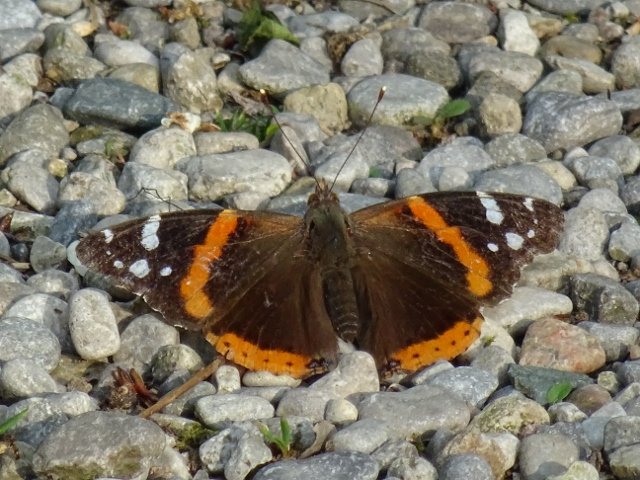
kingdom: Animalia
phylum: Arthropoda
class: Insecta
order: Lepidoptera
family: Nymphalidae
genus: Vanessa
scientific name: Vanessa atalanta
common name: Red Admiral
